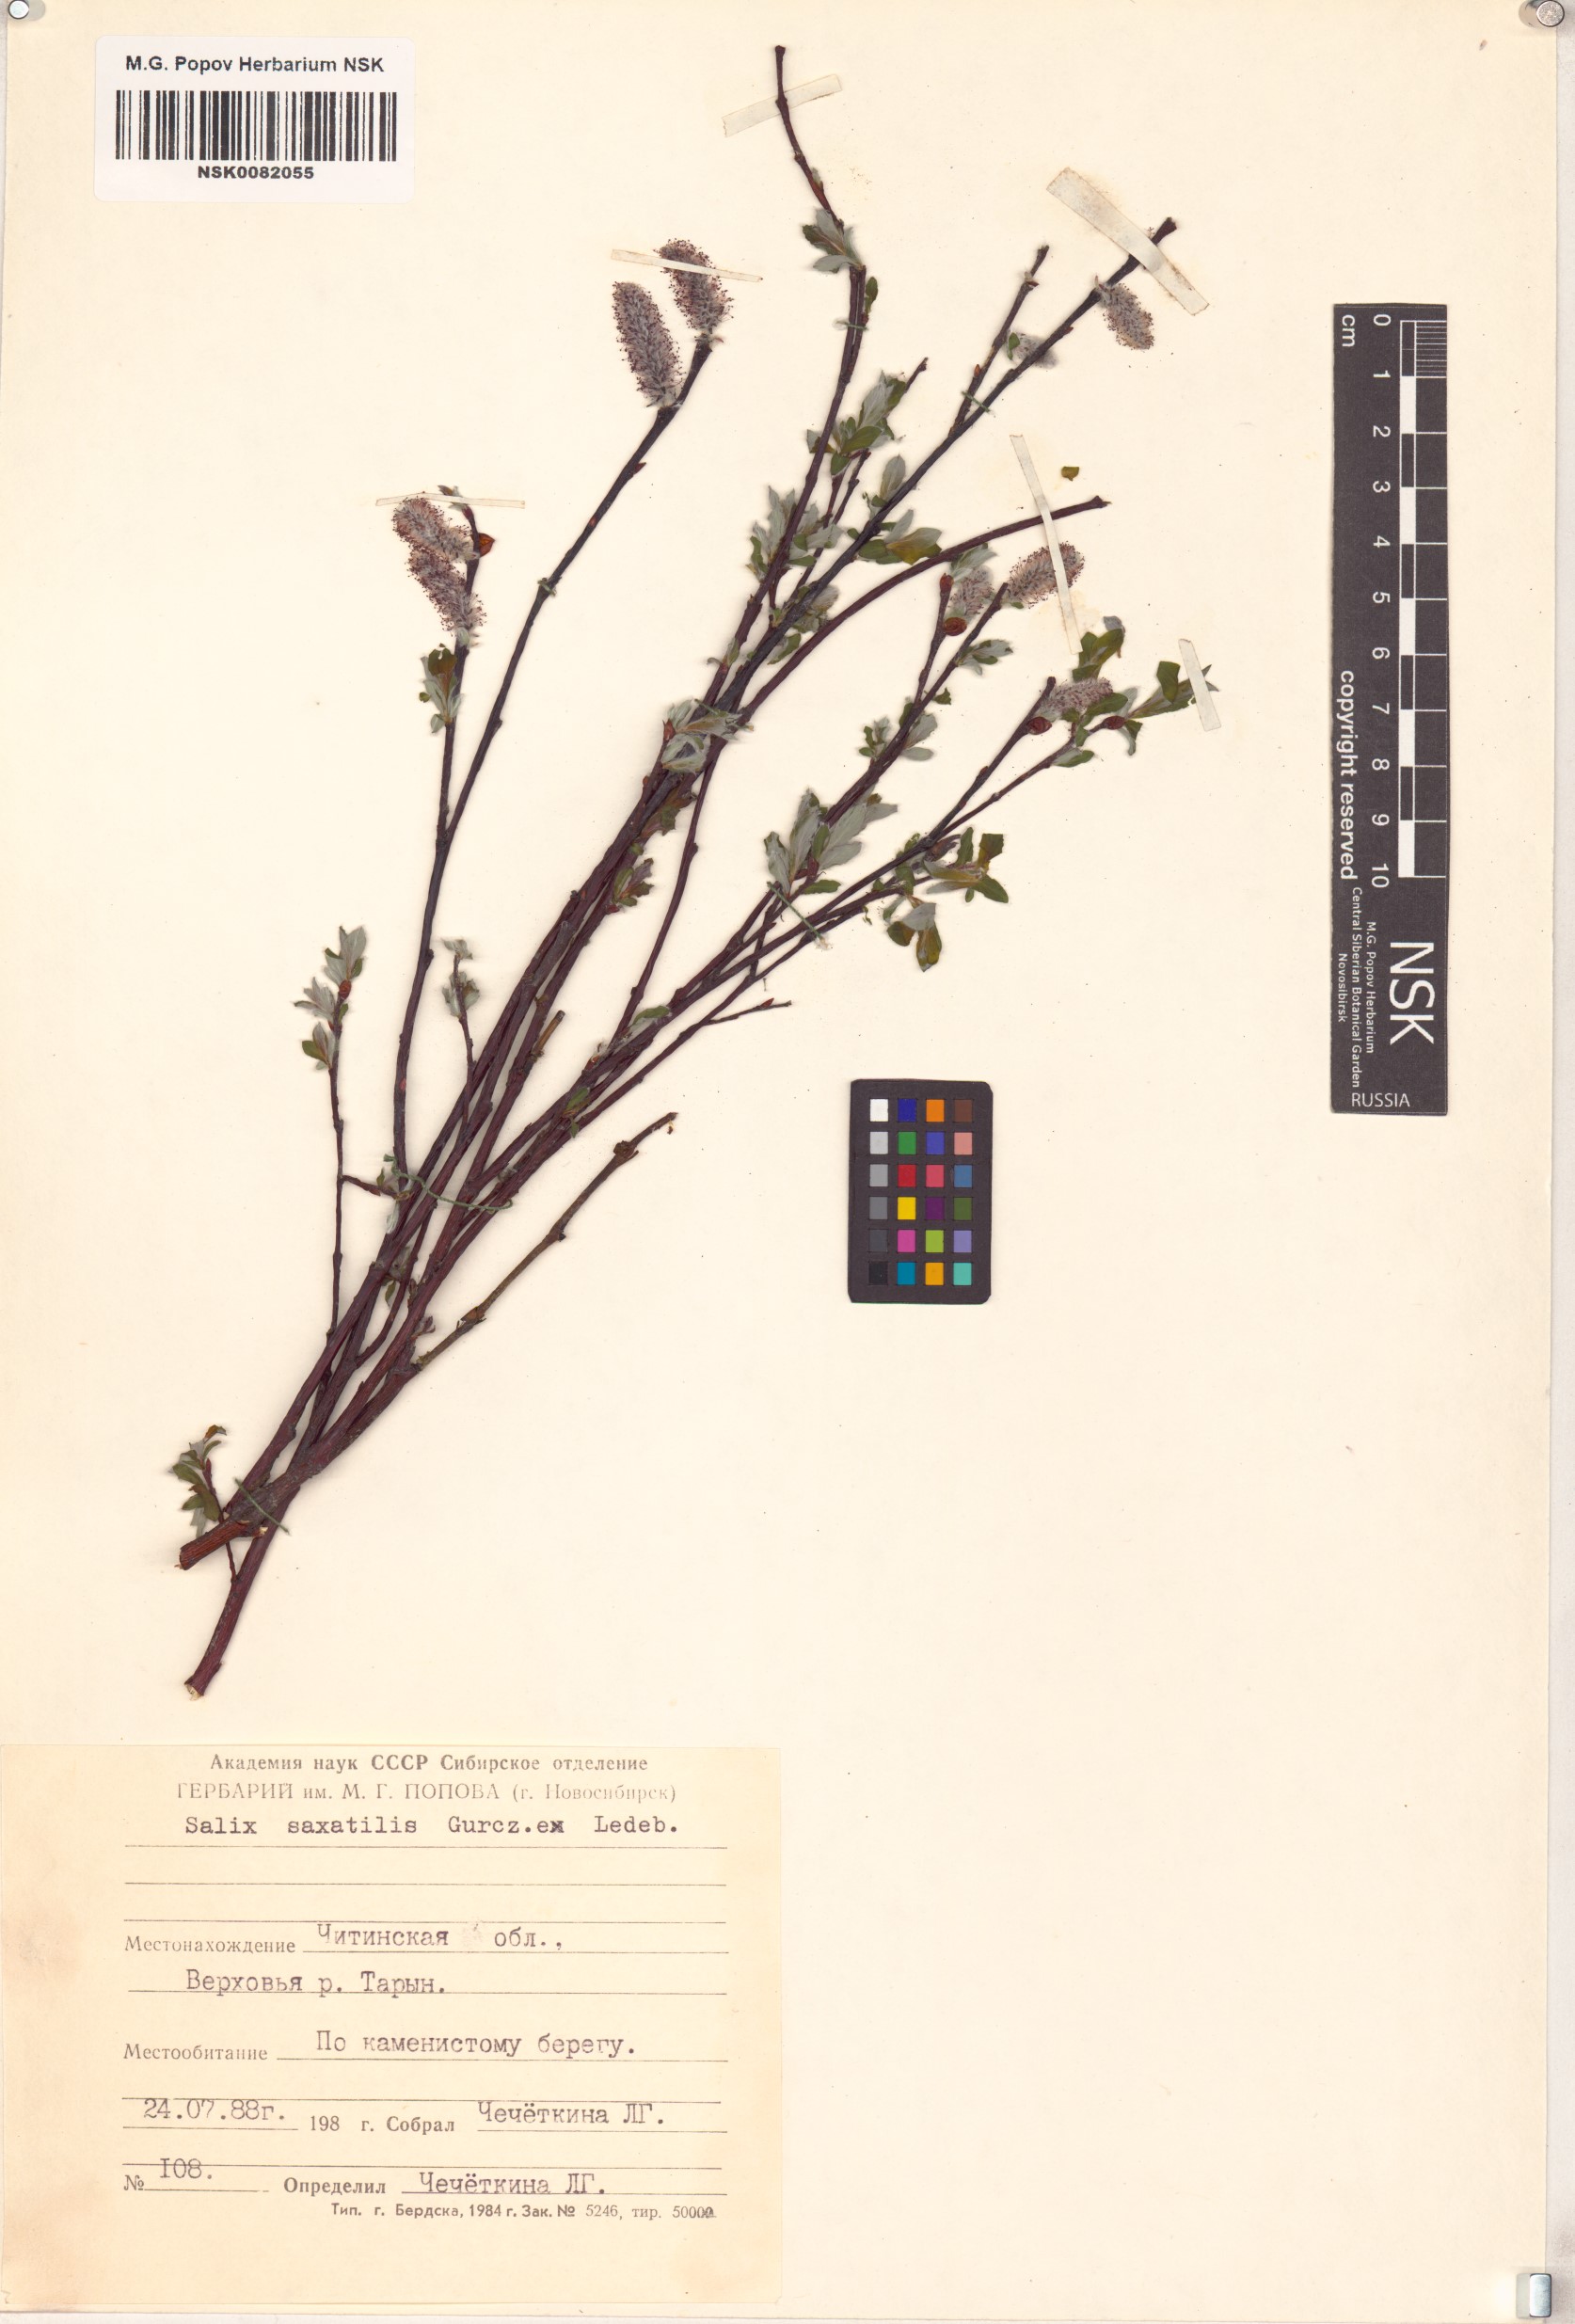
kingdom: Plantae
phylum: Tracheophyta
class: Magnoliopsida
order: Malpighiales
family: Salicaceae
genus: Salix
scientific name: Salix saxatilis
